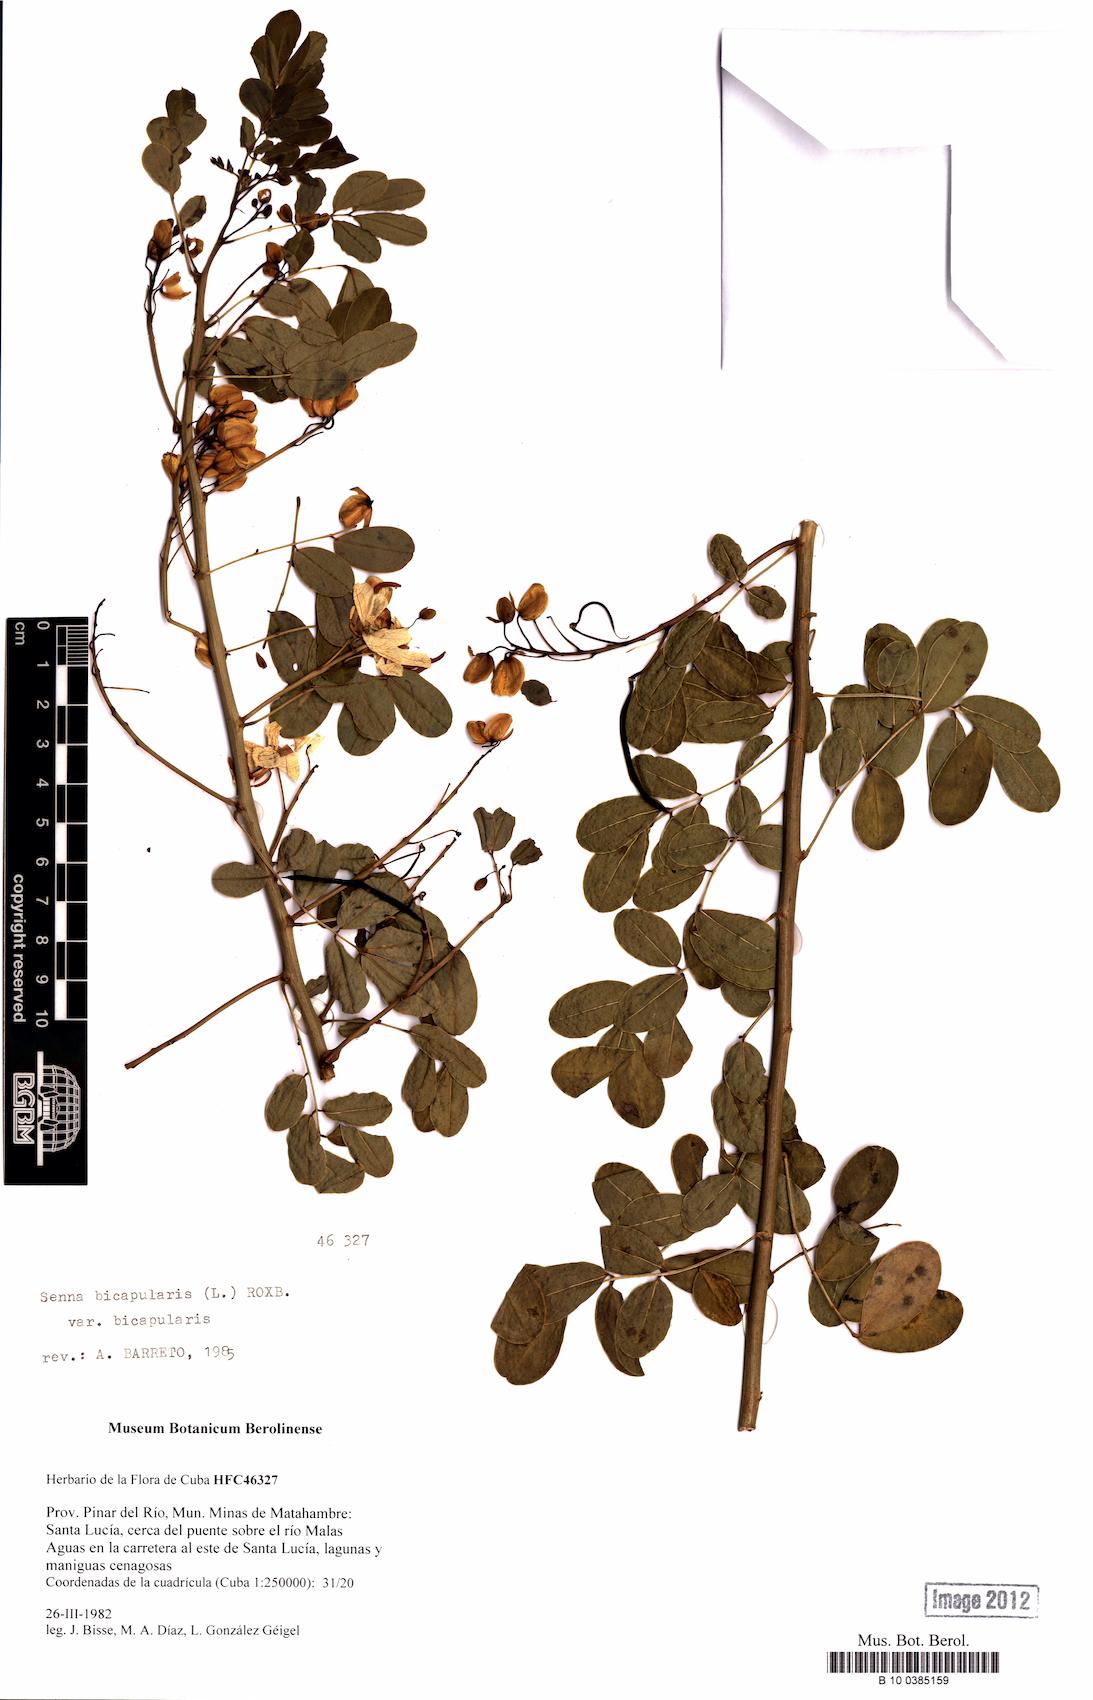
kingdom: Plantae
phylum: Tracheophyta
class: Magnoliopsida
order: Fabales
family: Fabaceae
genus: Senna
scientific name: Senna bicapsularis
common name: Christmasbush
